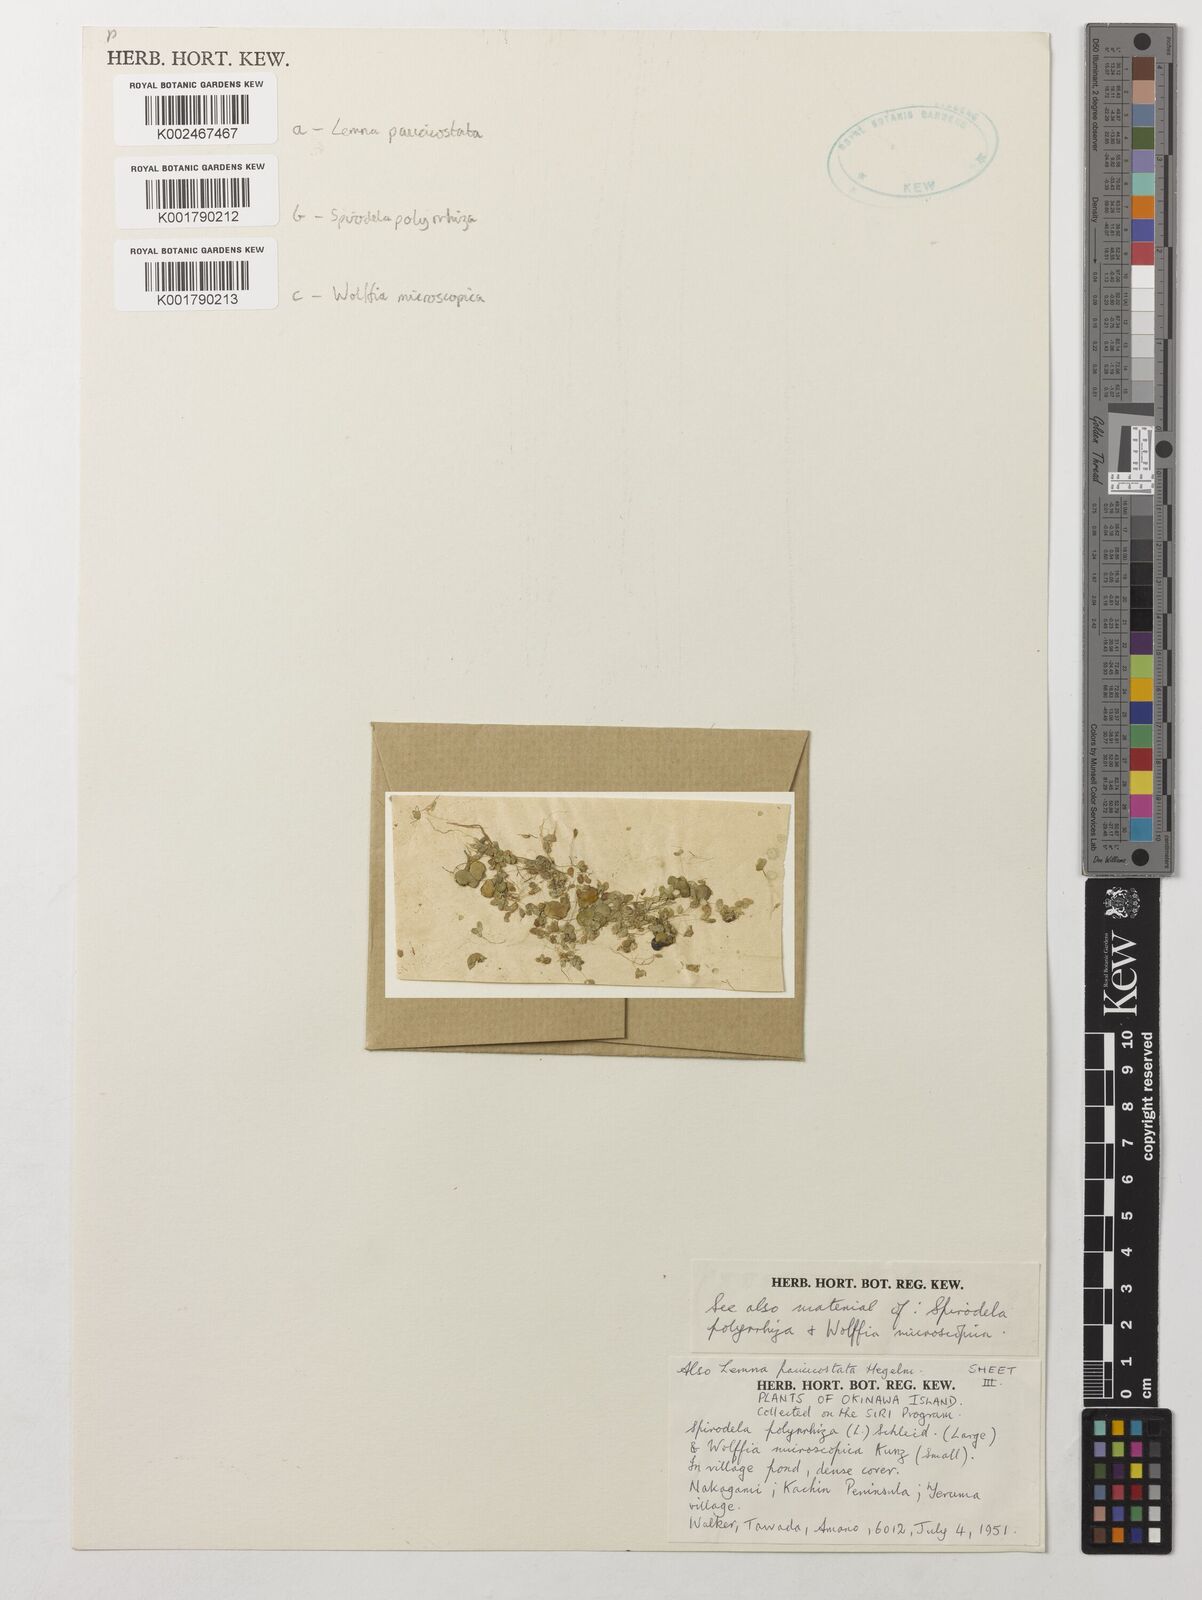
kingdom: Plantae
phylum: Tracheophyta
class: Liliopsida
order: Alismatales
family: Araceae
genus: Spirodela
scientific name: Spirodela polyrhiza
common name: Great duckweed
